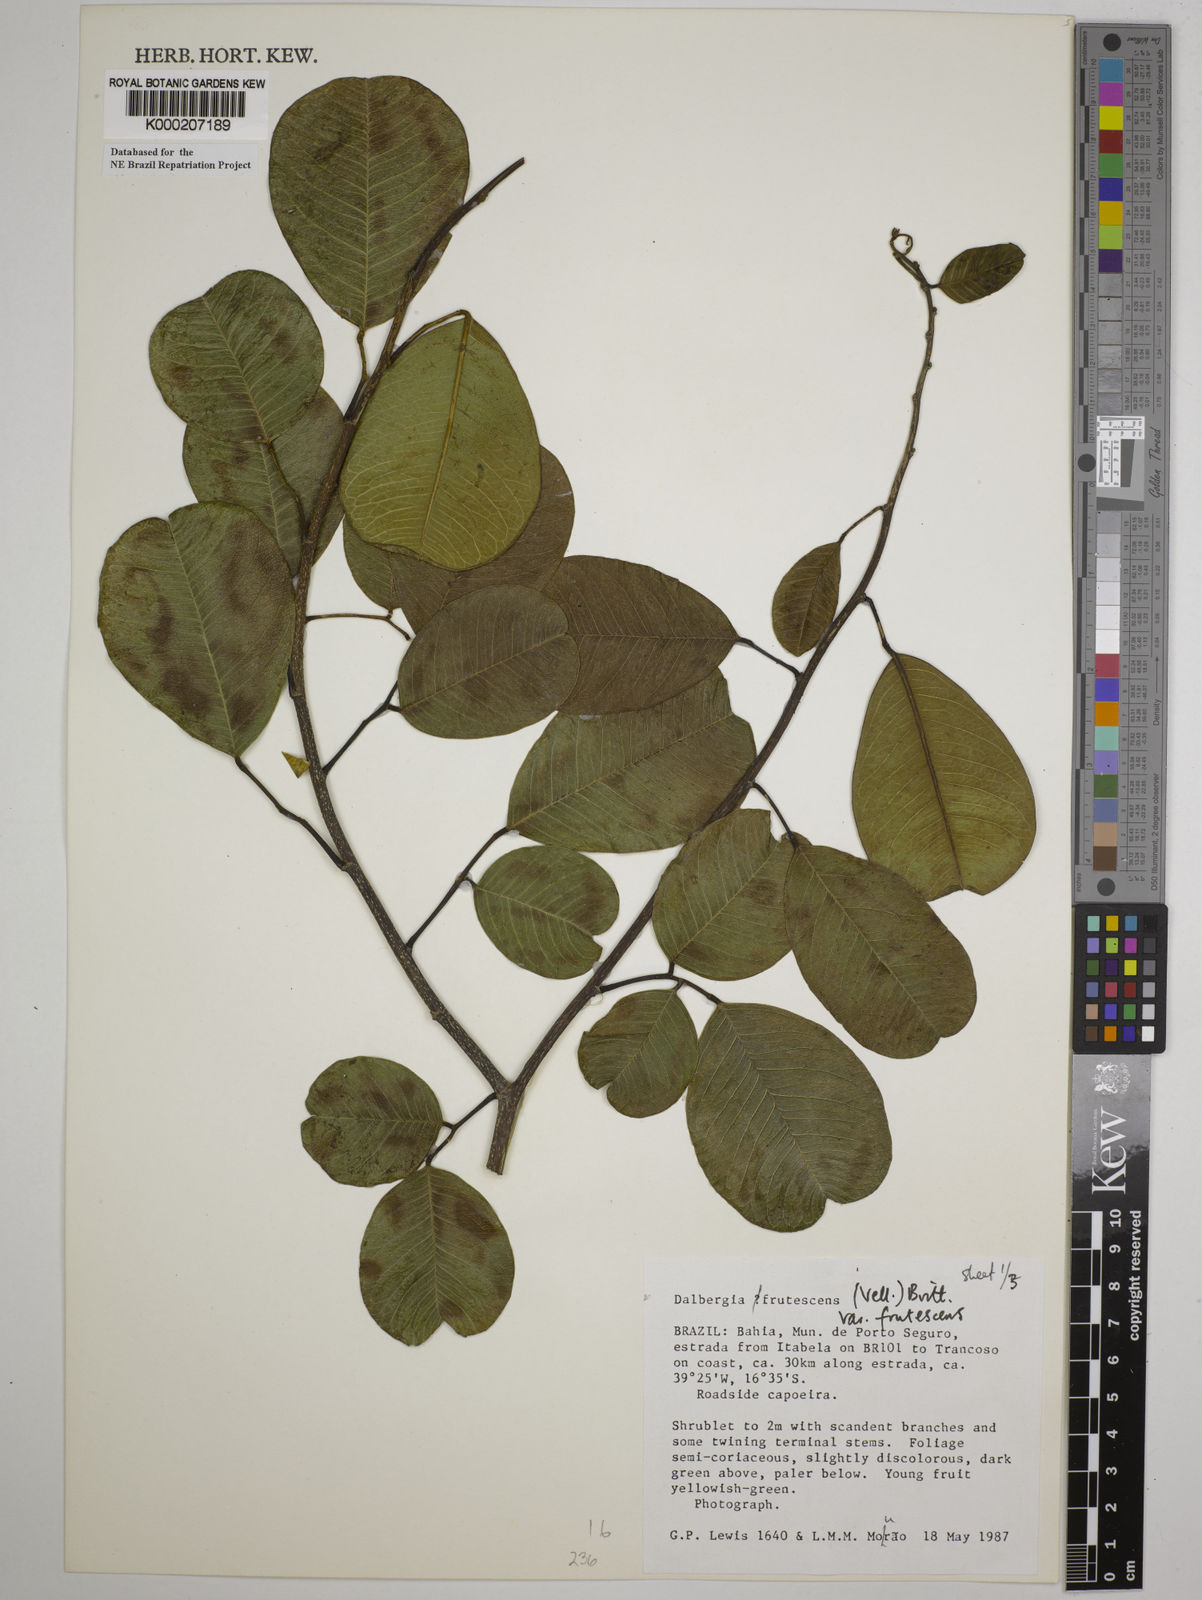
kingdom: Plantae
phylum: Tracheophyta
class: Magnoliopsida
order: Fabales
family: Fabaceae
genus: Dalbergia
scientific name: Dalbergia frutescens
